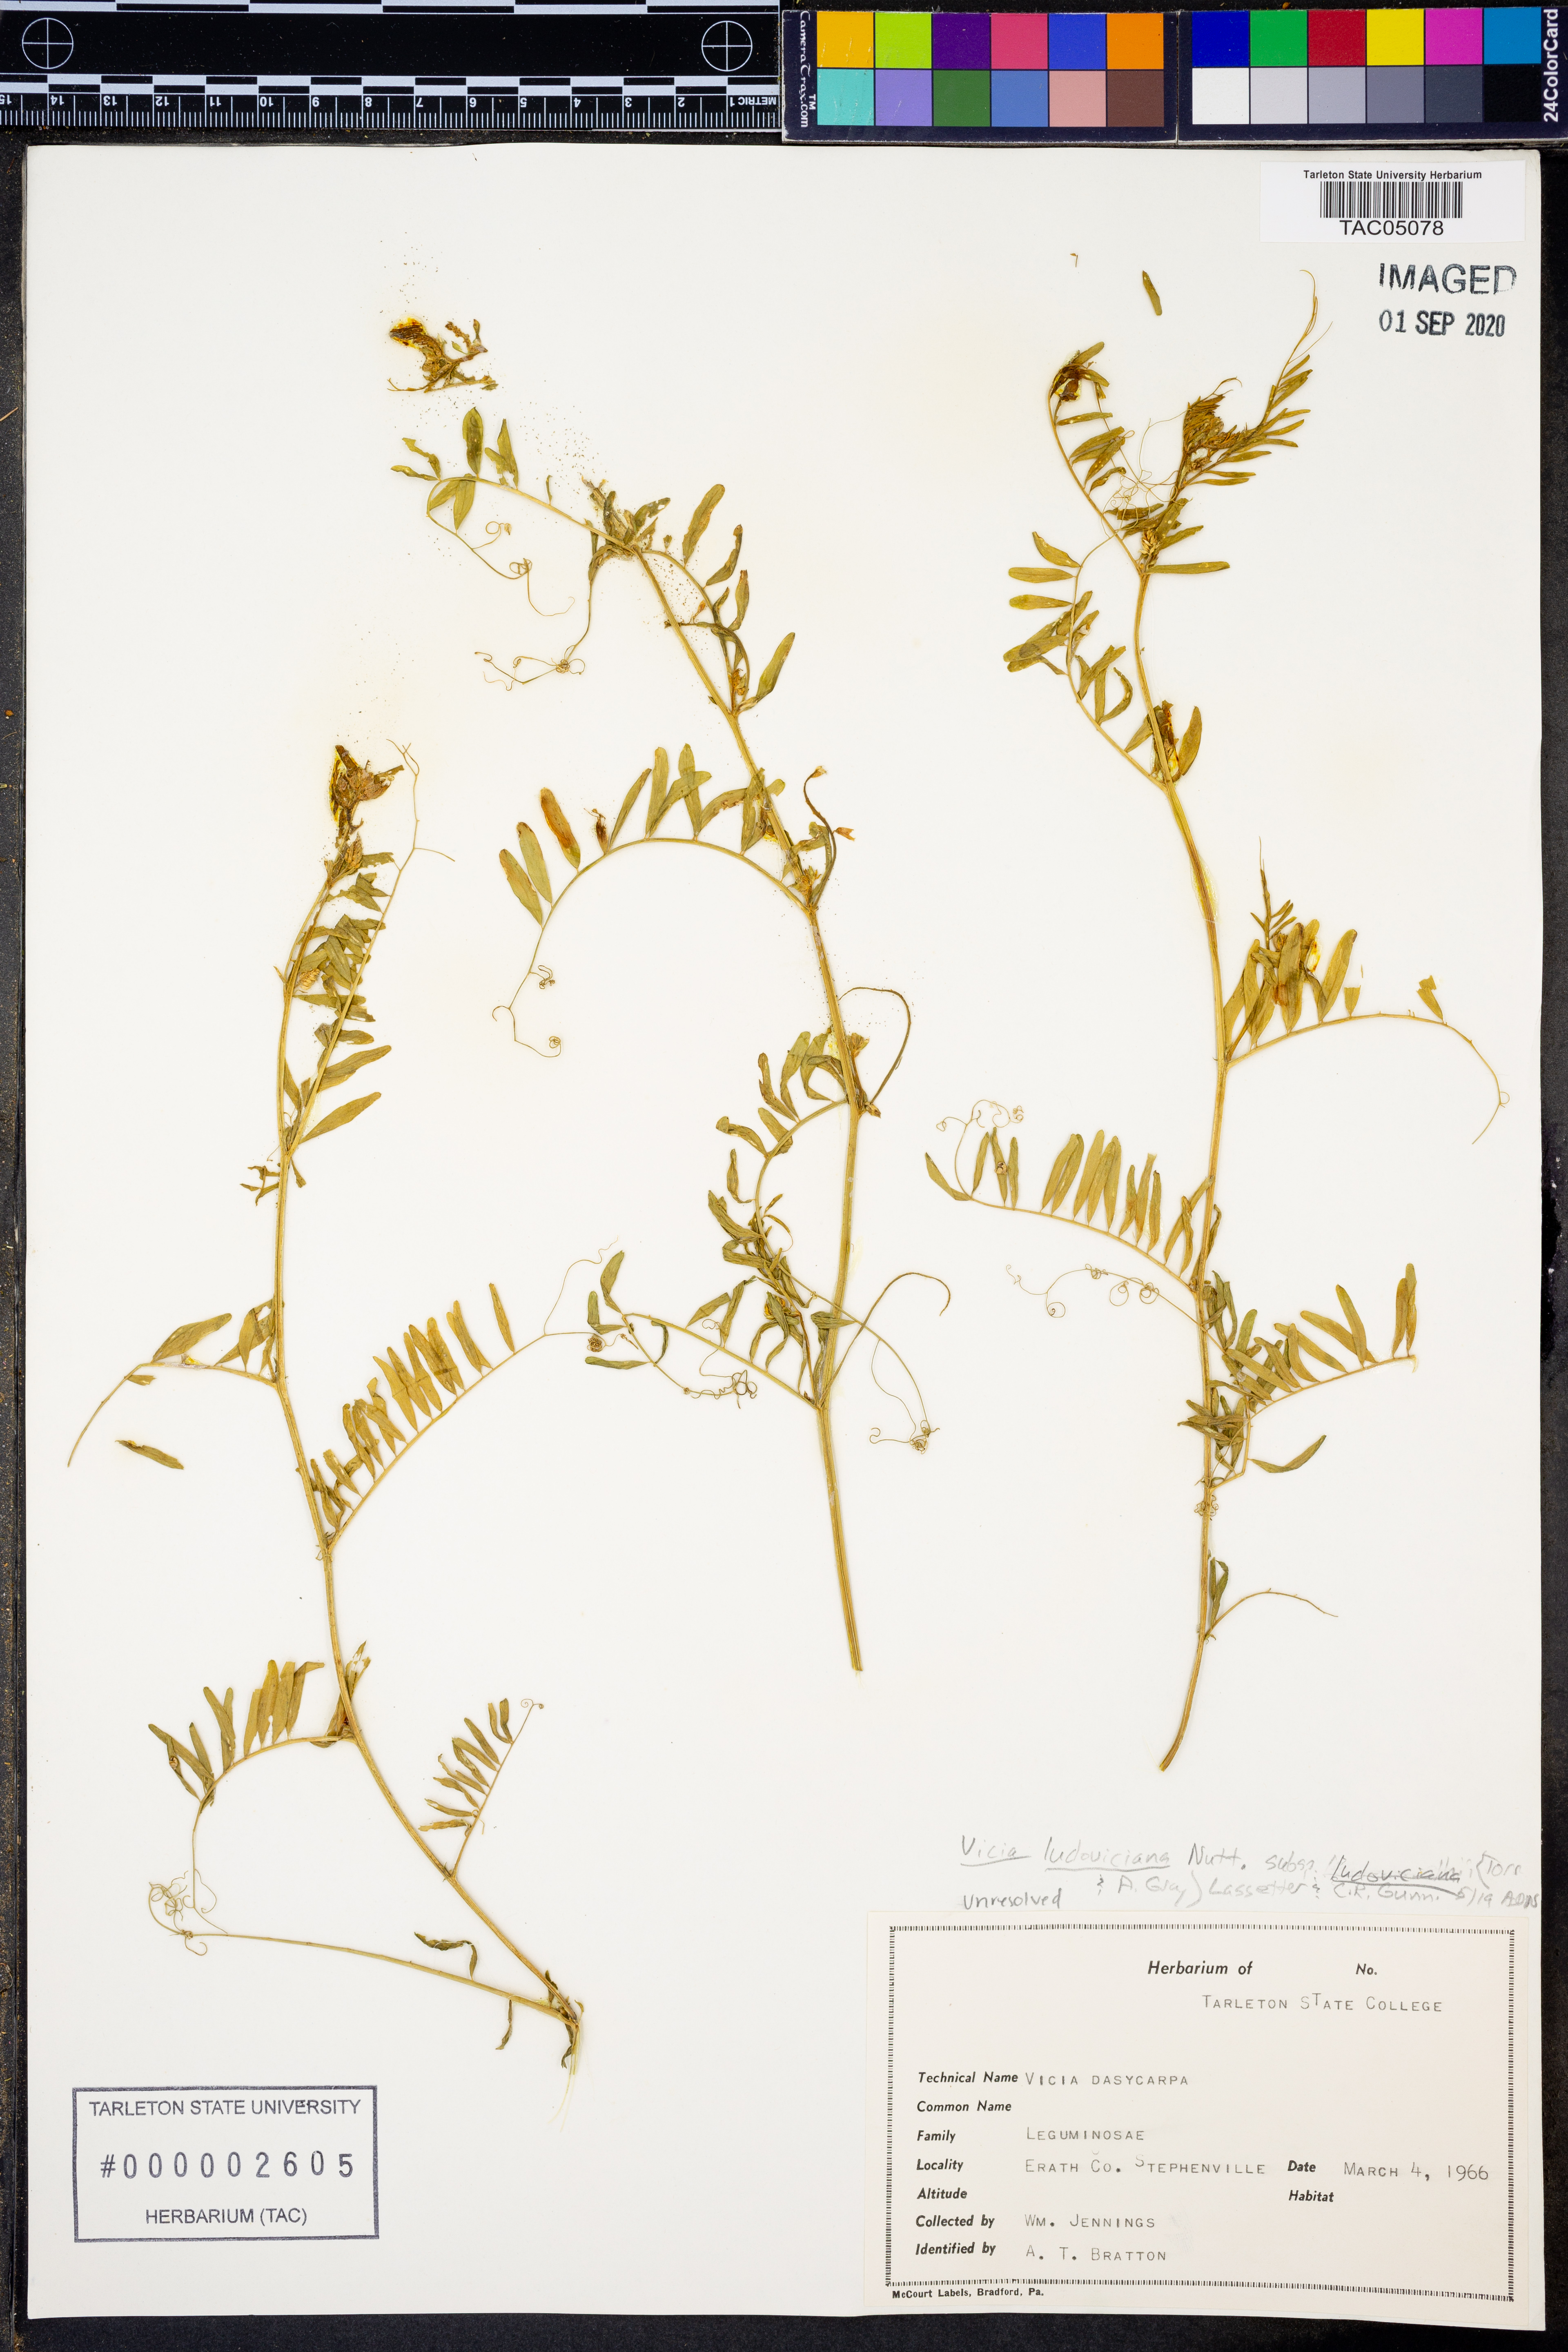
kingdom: Plantae
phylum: Tracheophyta
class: Magnoliopsida
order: Fabales
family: Fabaceae
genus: Vicia
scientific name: Vicia ludoviciana
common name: Louisiana vetch
